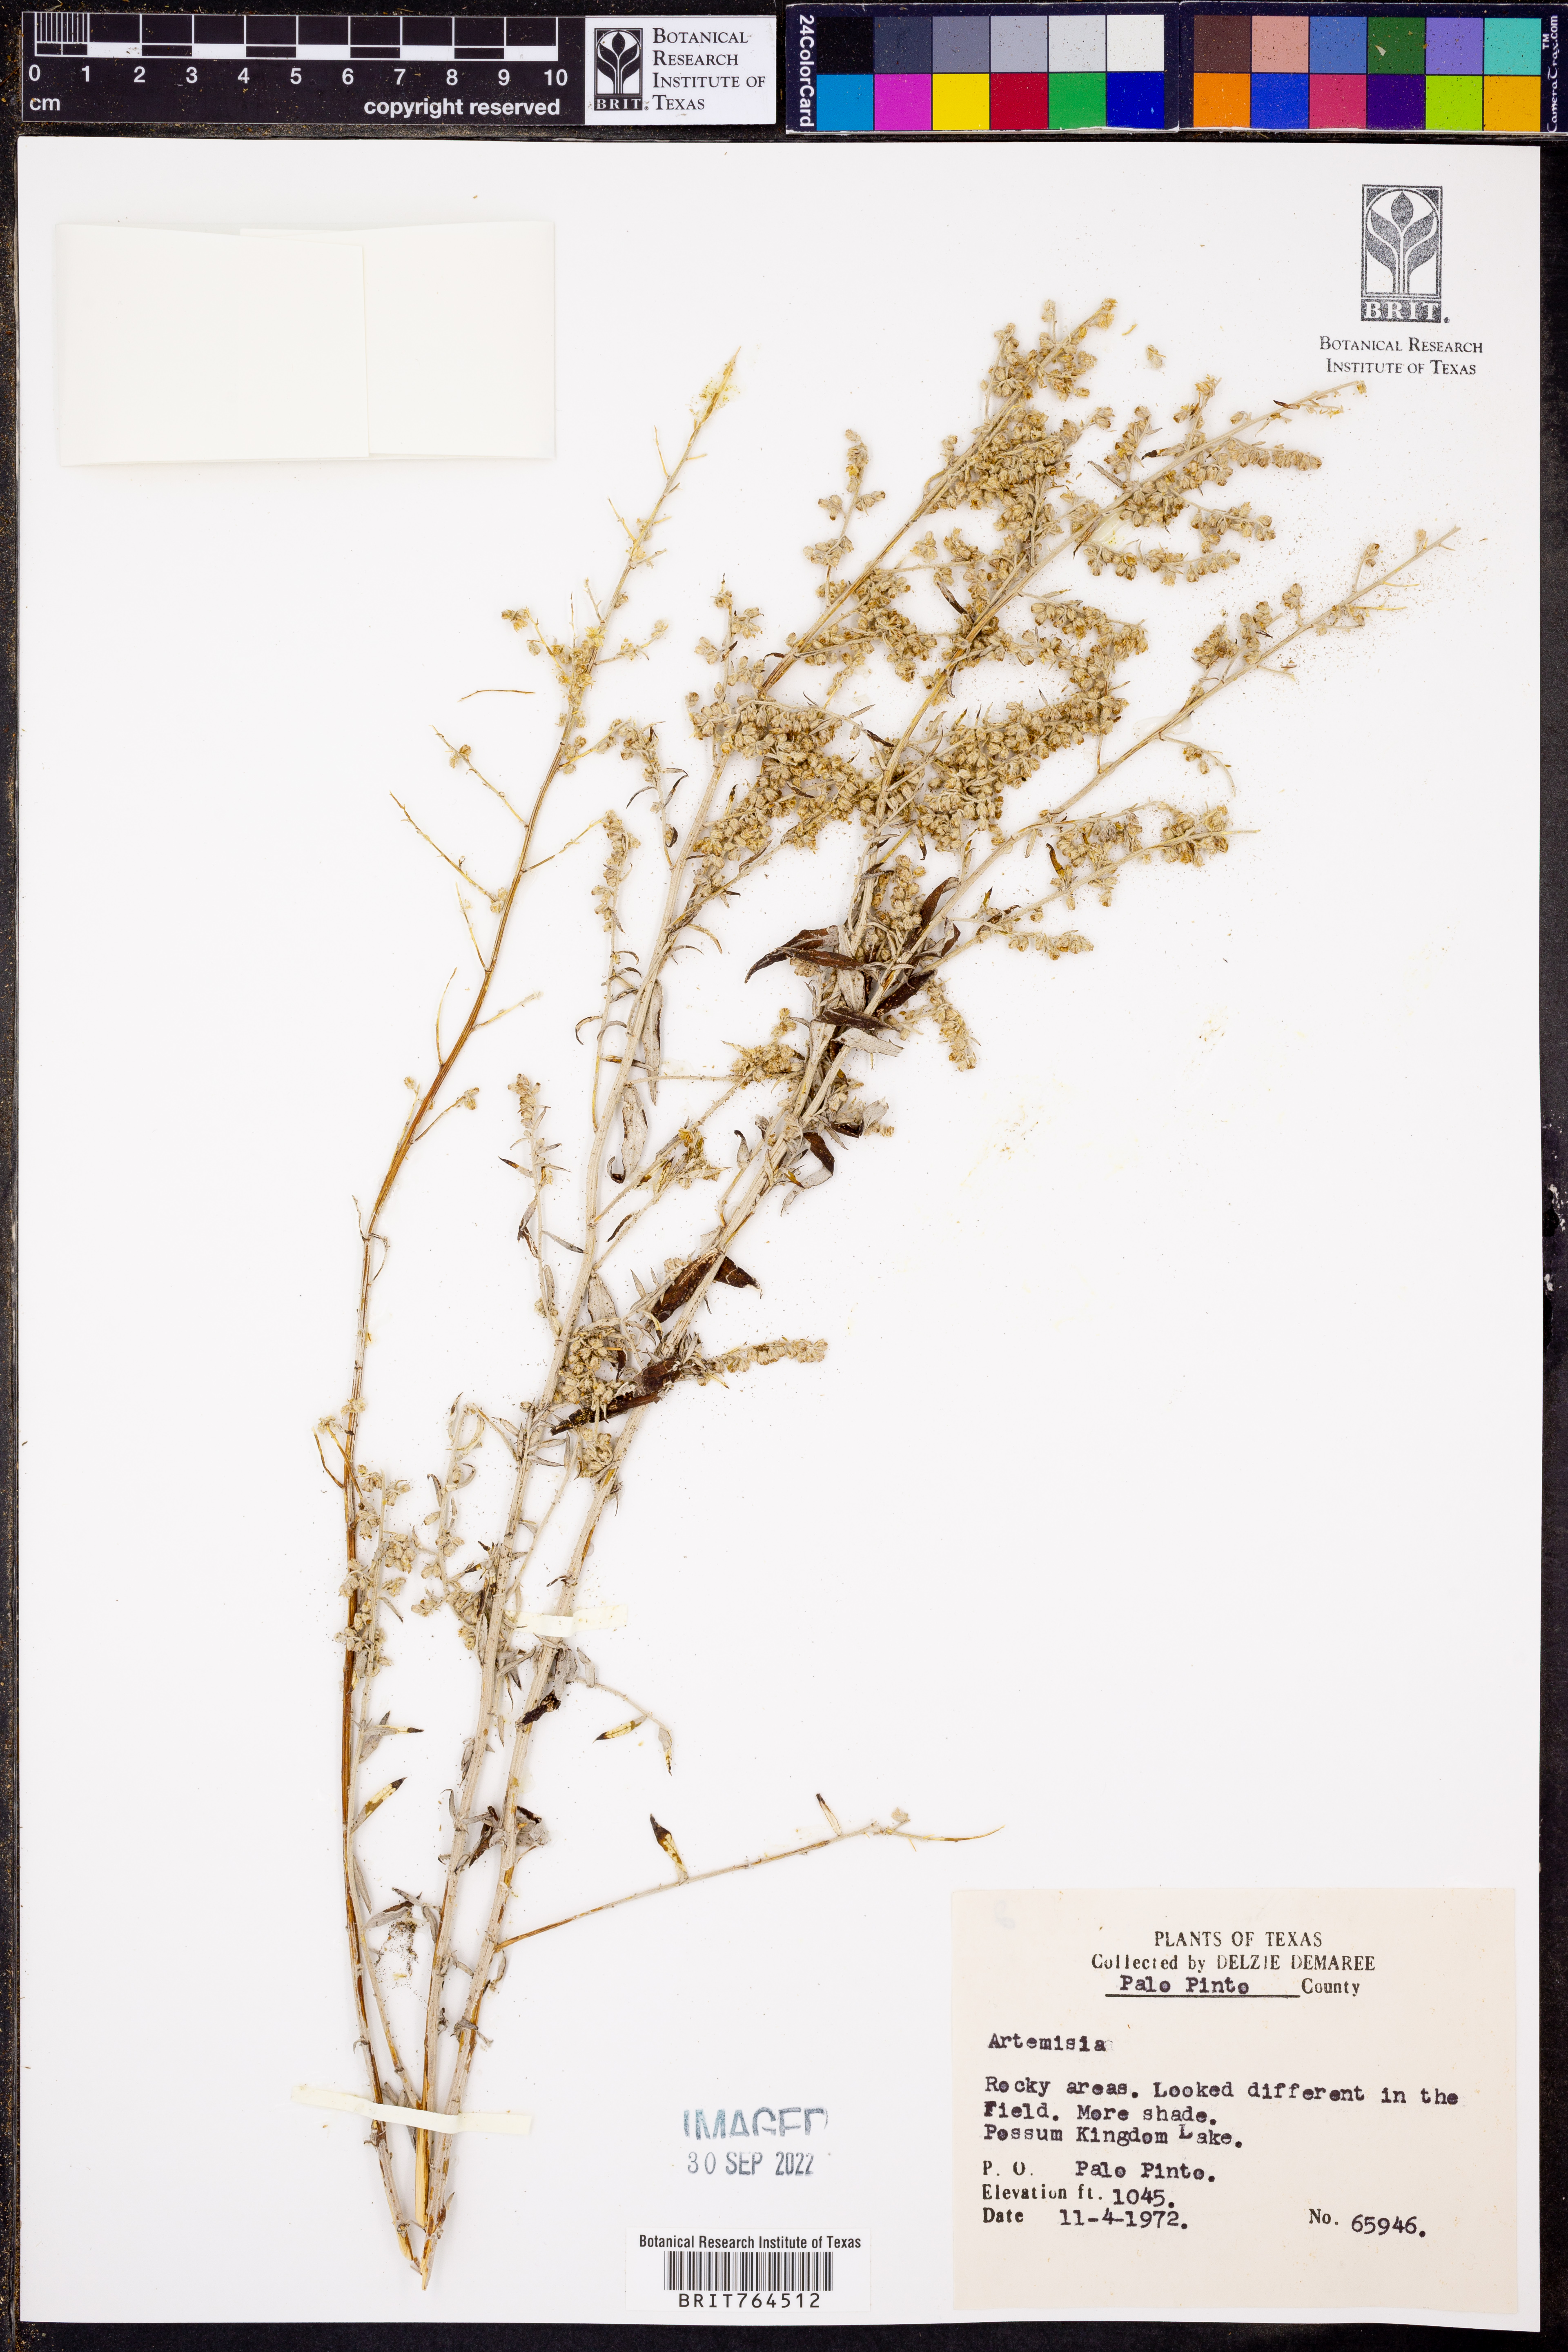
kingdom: Plantae
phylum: Tracheophyta
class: Magnoliopsida
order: Asterales
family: Asteraceae
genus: Artemisia
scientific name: Artemisia
